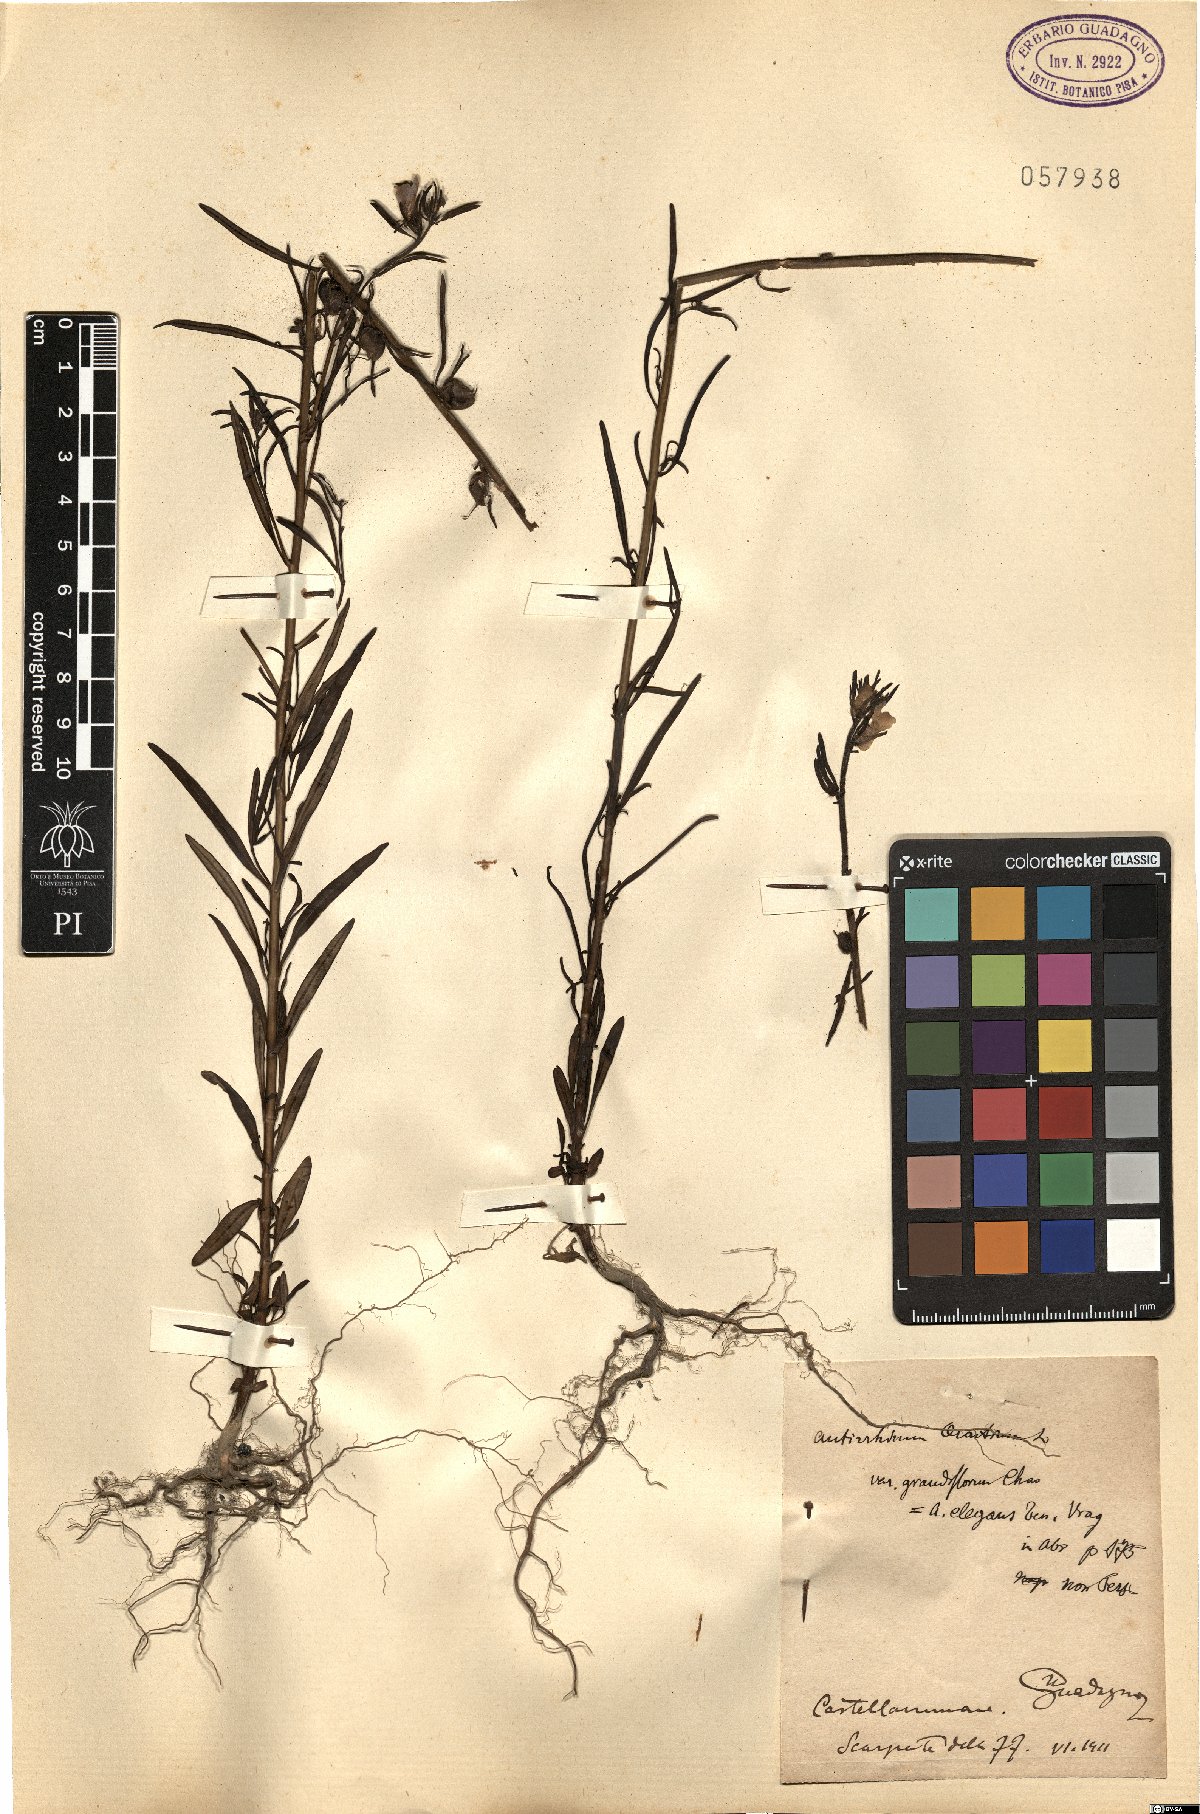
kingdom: Plantae
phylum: Tracheophyta
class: Magnoliopsida
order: Lamiales
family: Plantaginaceae
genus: Misopates
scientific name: Misopates calycinum
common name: Pale weasel's-snout
